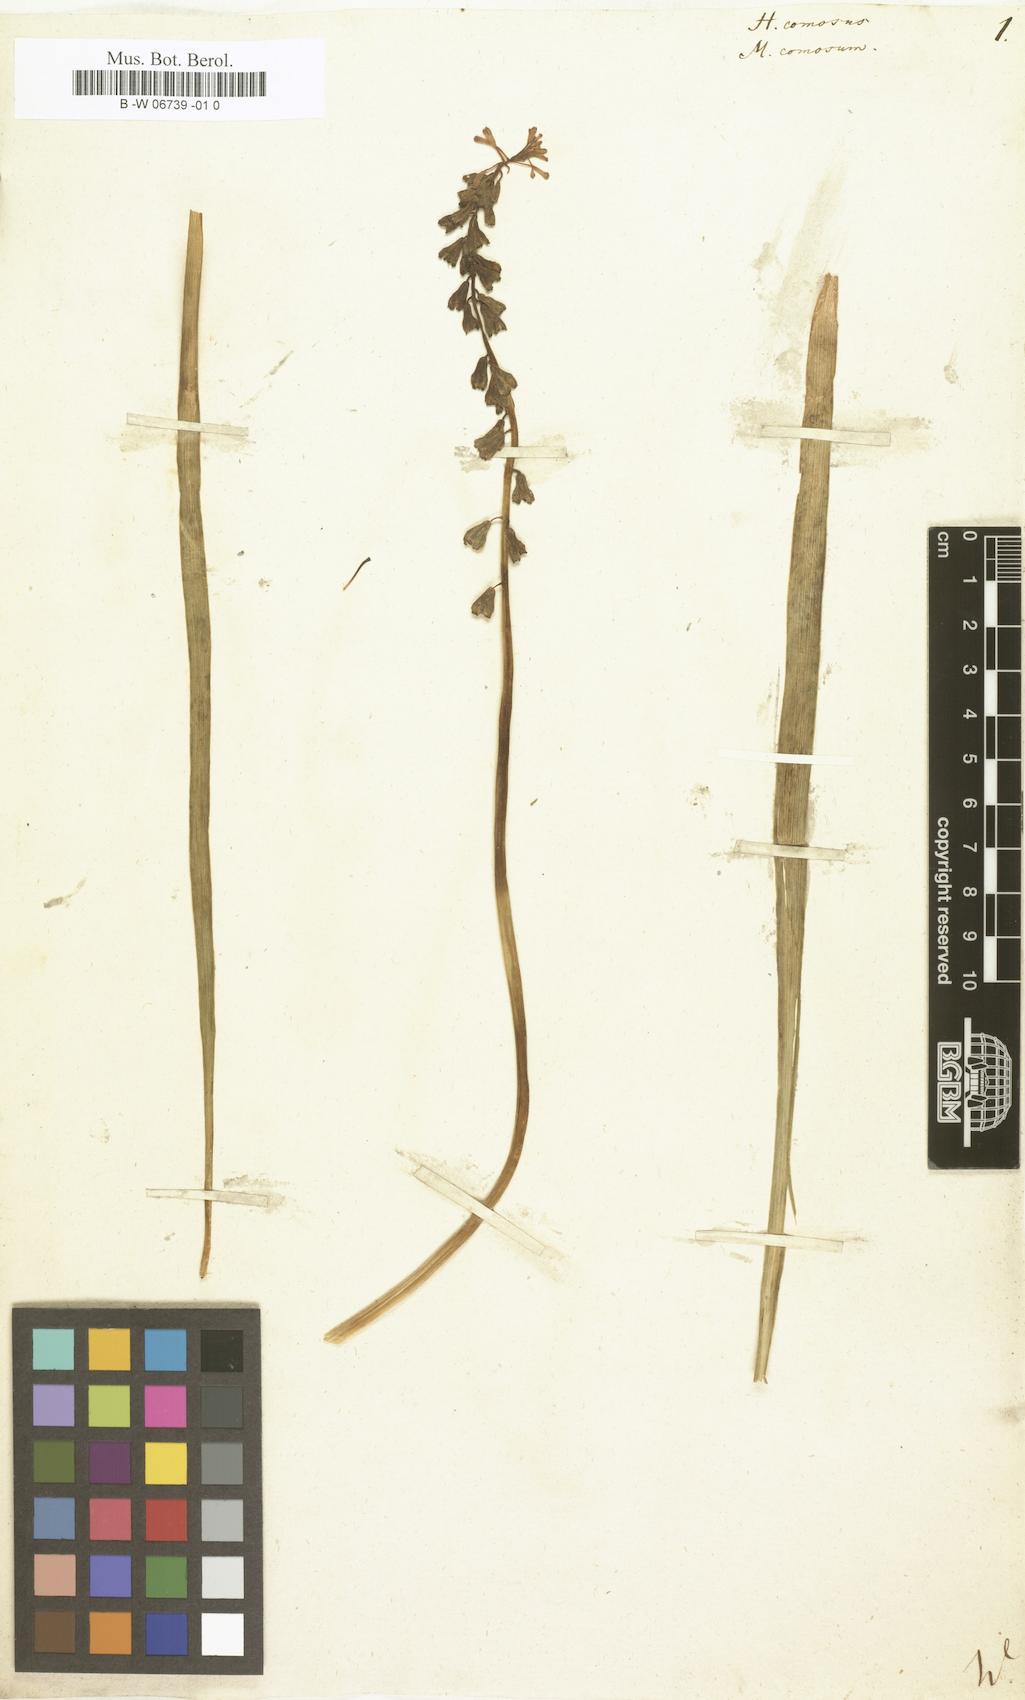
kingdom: Plantae
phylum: Tracheophyta
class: Liliopsida
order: Asparagales
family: Asparagaceae
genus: Muscari
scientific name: Muscari comosum
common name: Tassel hyacinth
